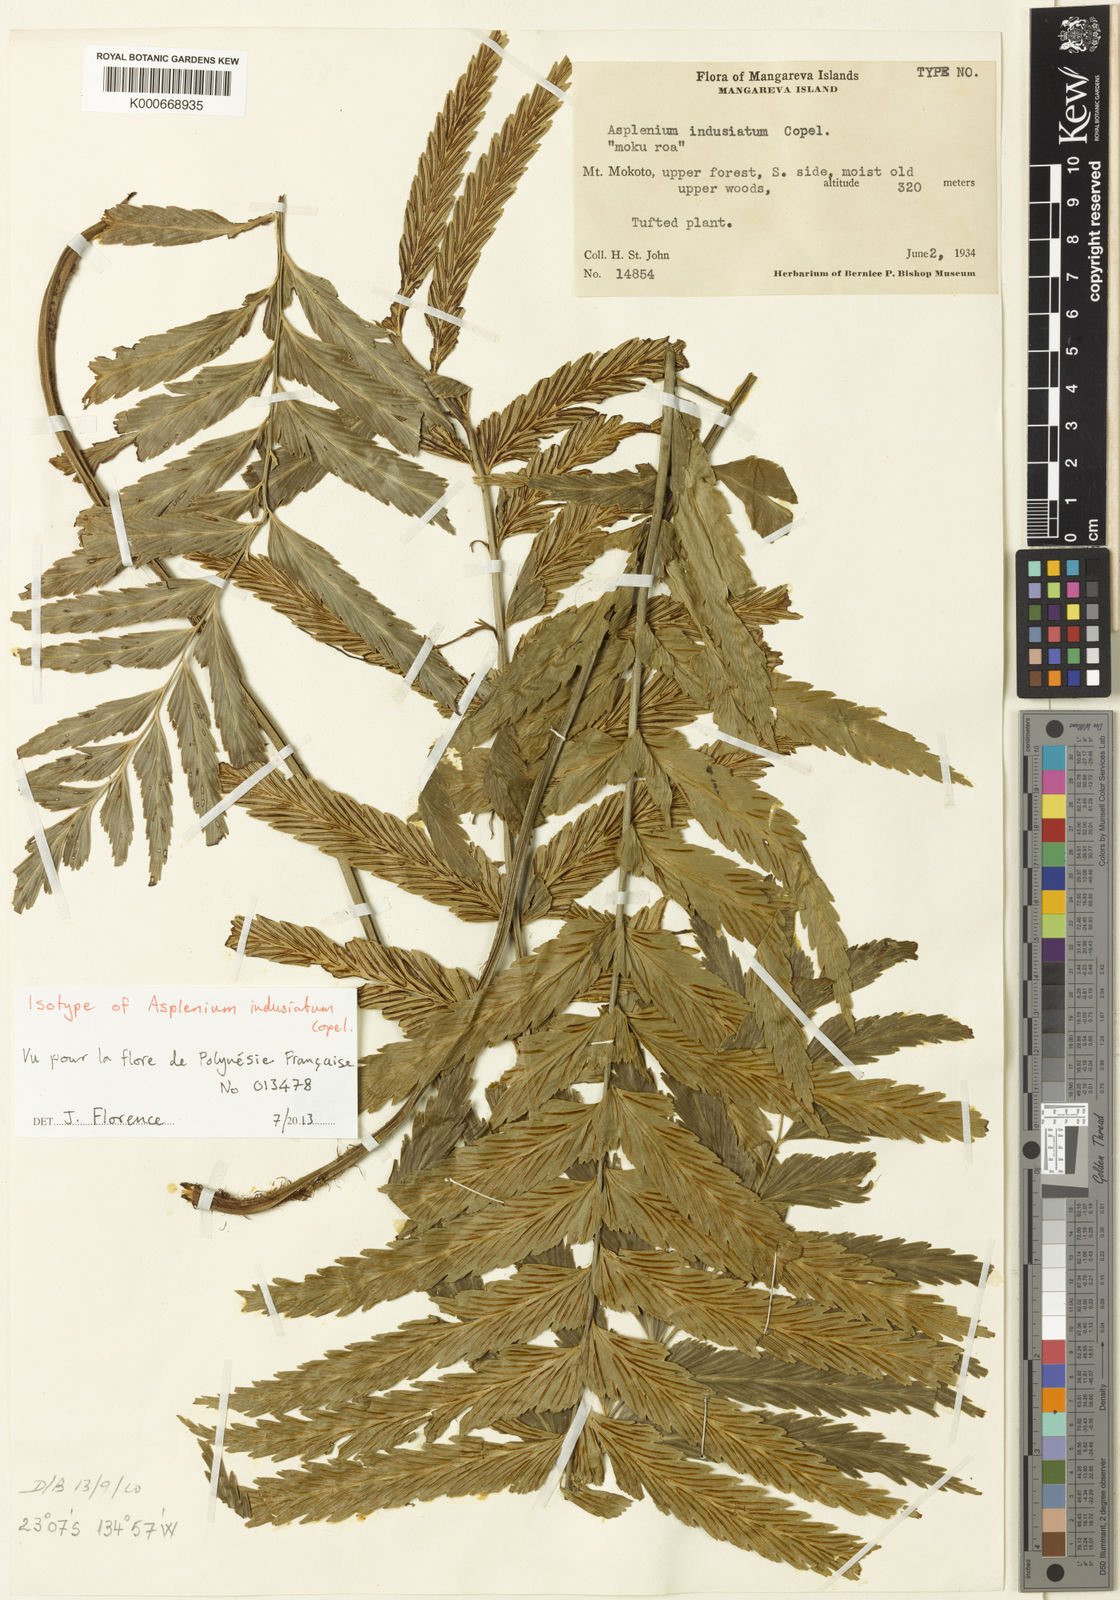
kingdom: Plantae
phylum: Tracheophyta
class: Polypodiopsida
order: Polypodiales
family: Aspleniaceae
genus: Asplenium
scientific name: Asplenium indusiatum
